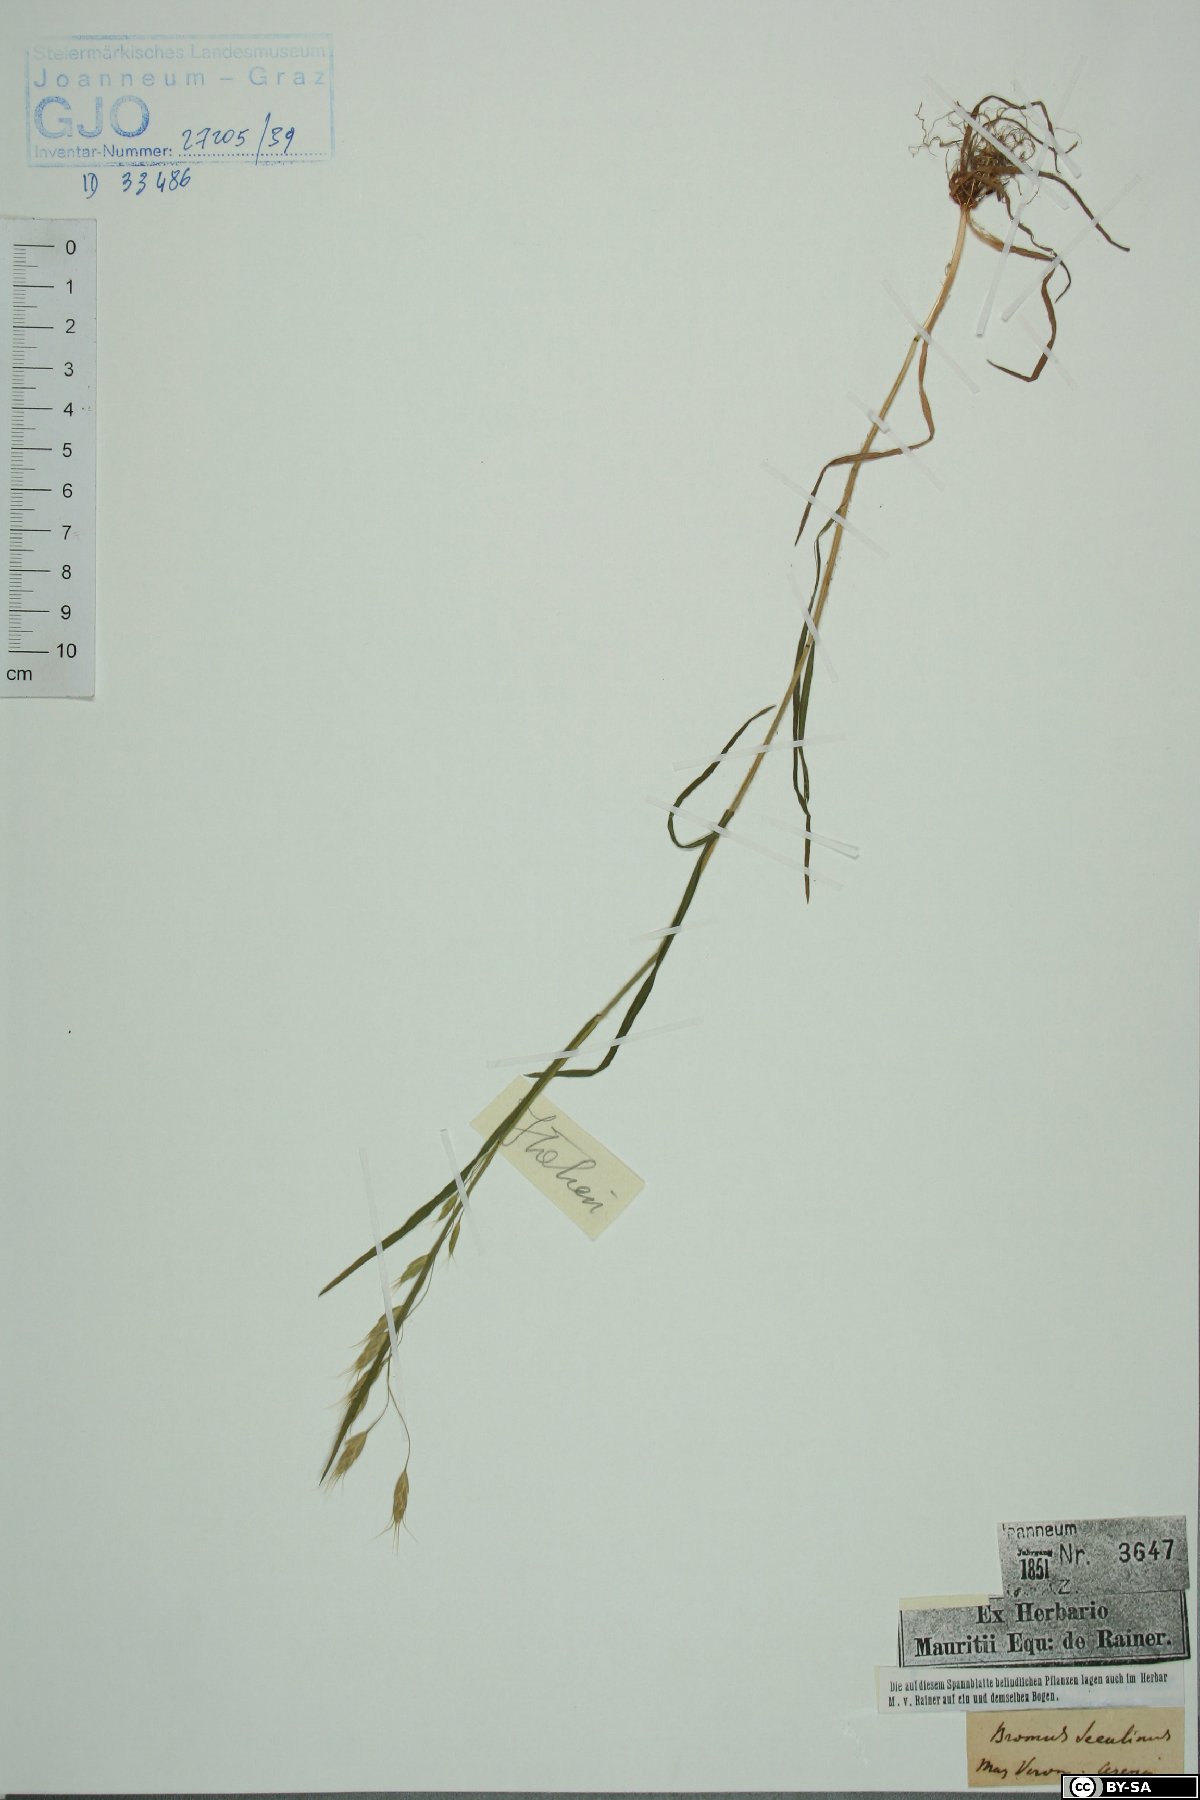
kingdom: Plantae
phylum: Tracheophyta
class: Liliopsida
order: Poales
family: Poaceae
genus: Bromus
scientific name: Bromus secalinus
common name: Rye brome
